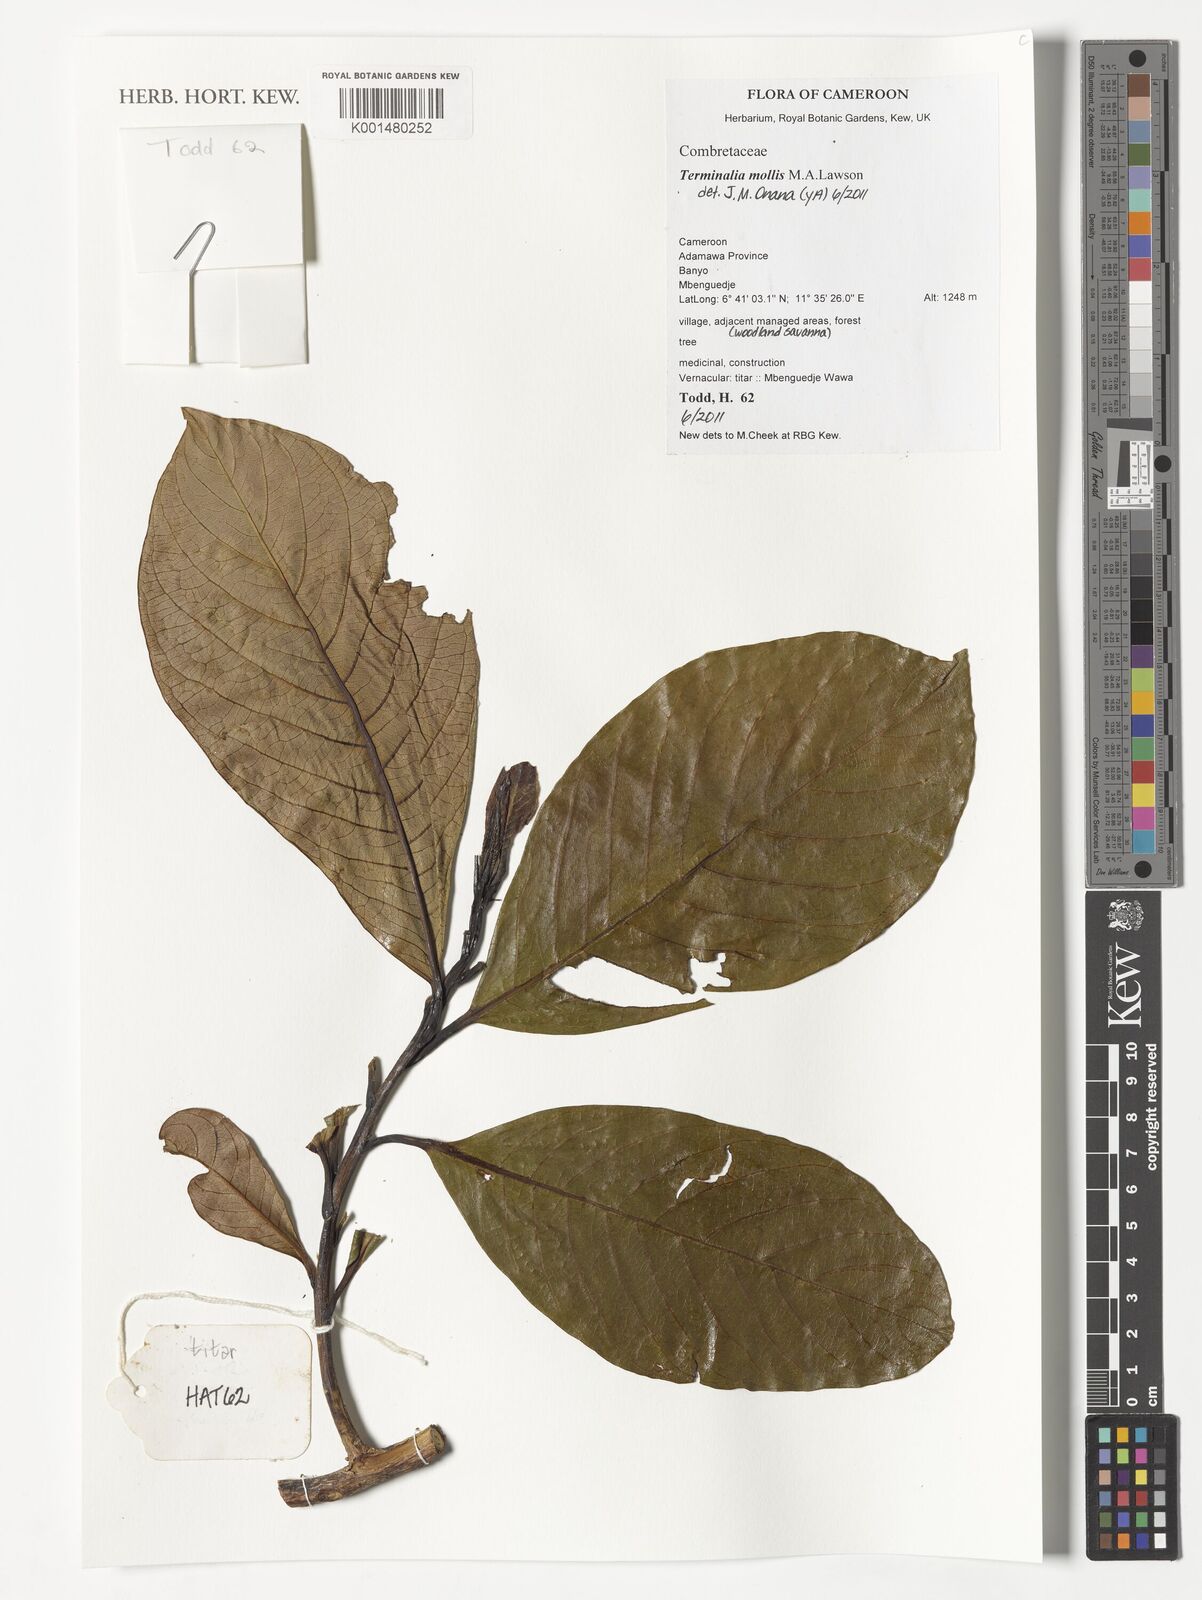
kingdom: Plantae
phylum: Tracheophyta
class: Magnoliopsida
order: Myrtales
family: Combretaceae
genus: Terminalia
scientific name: Terminalia mollis
